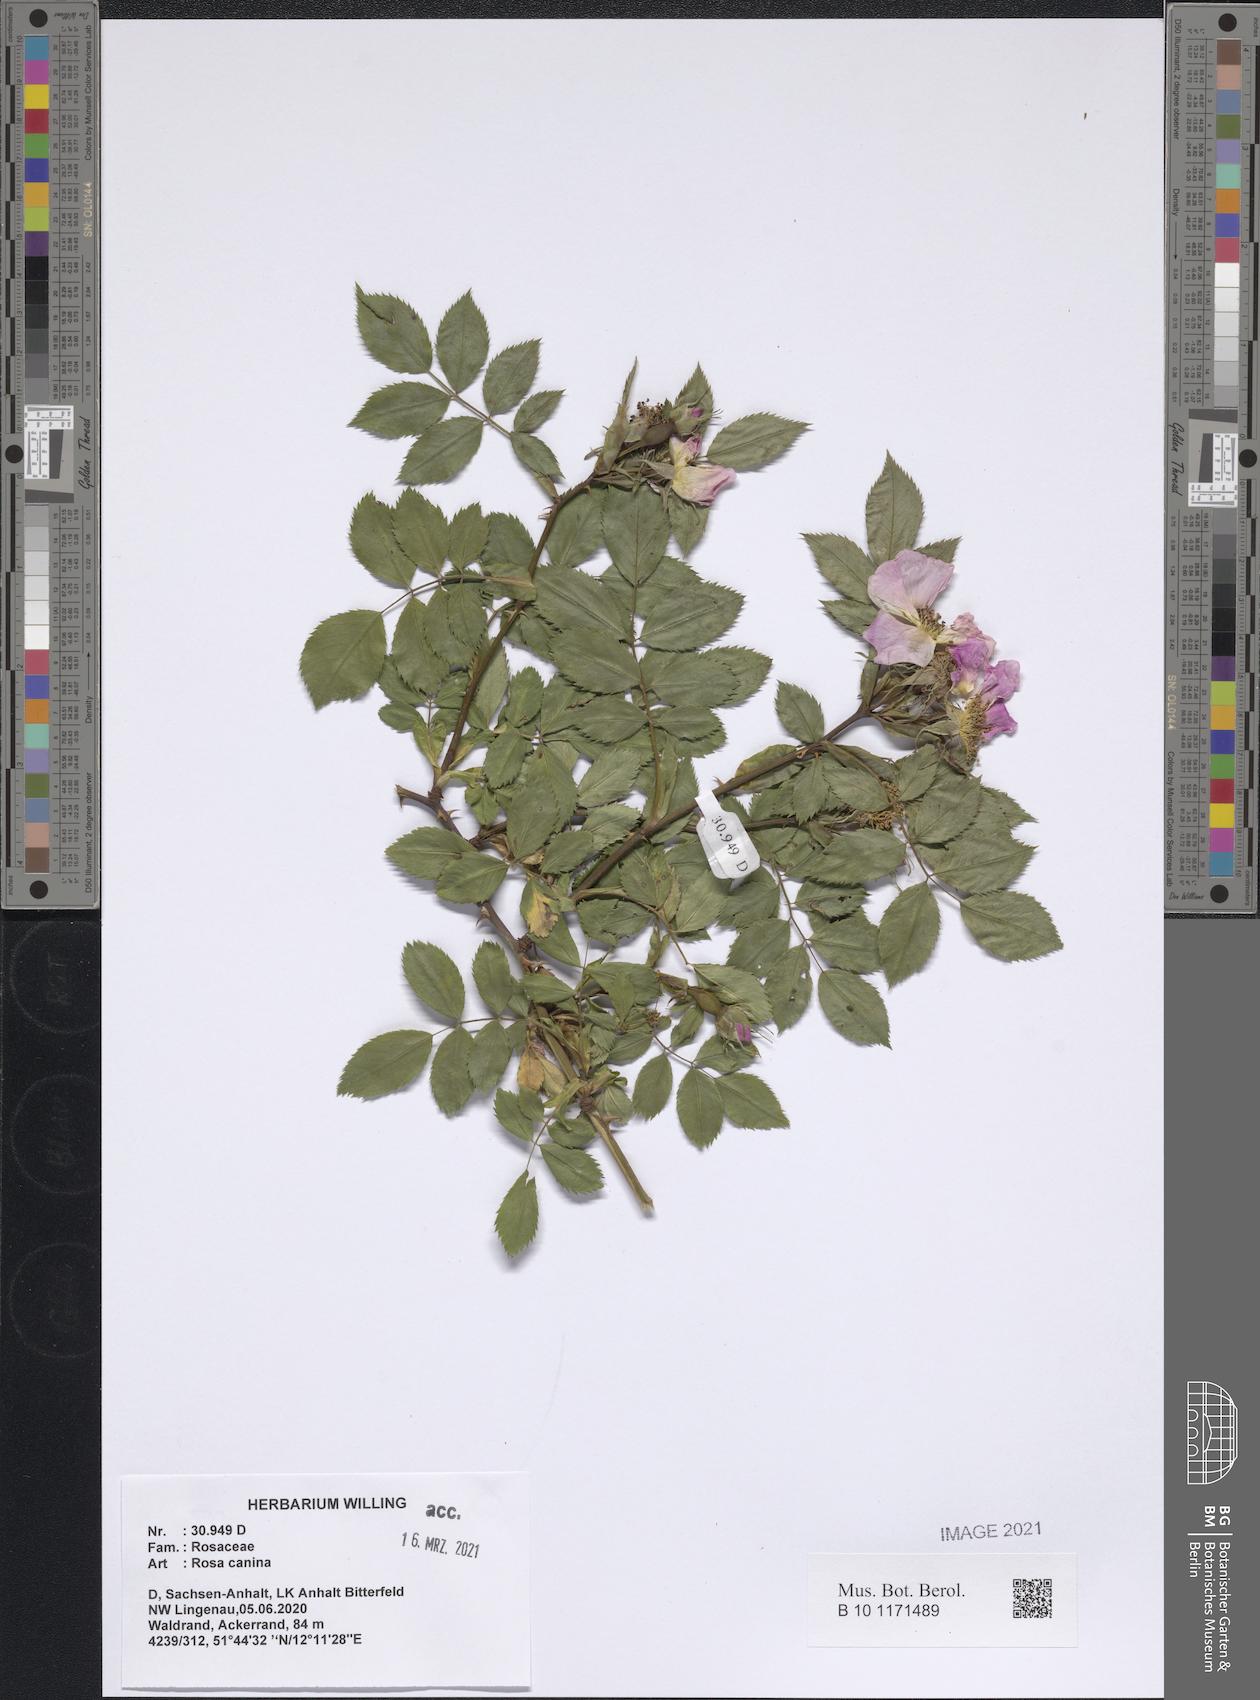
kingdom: Plantae
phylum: Tracheophyta
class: Magnoliopsida
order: Rosales
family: Rosaceae
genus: Rosa
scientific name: Rosa canina
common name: Dog rose
